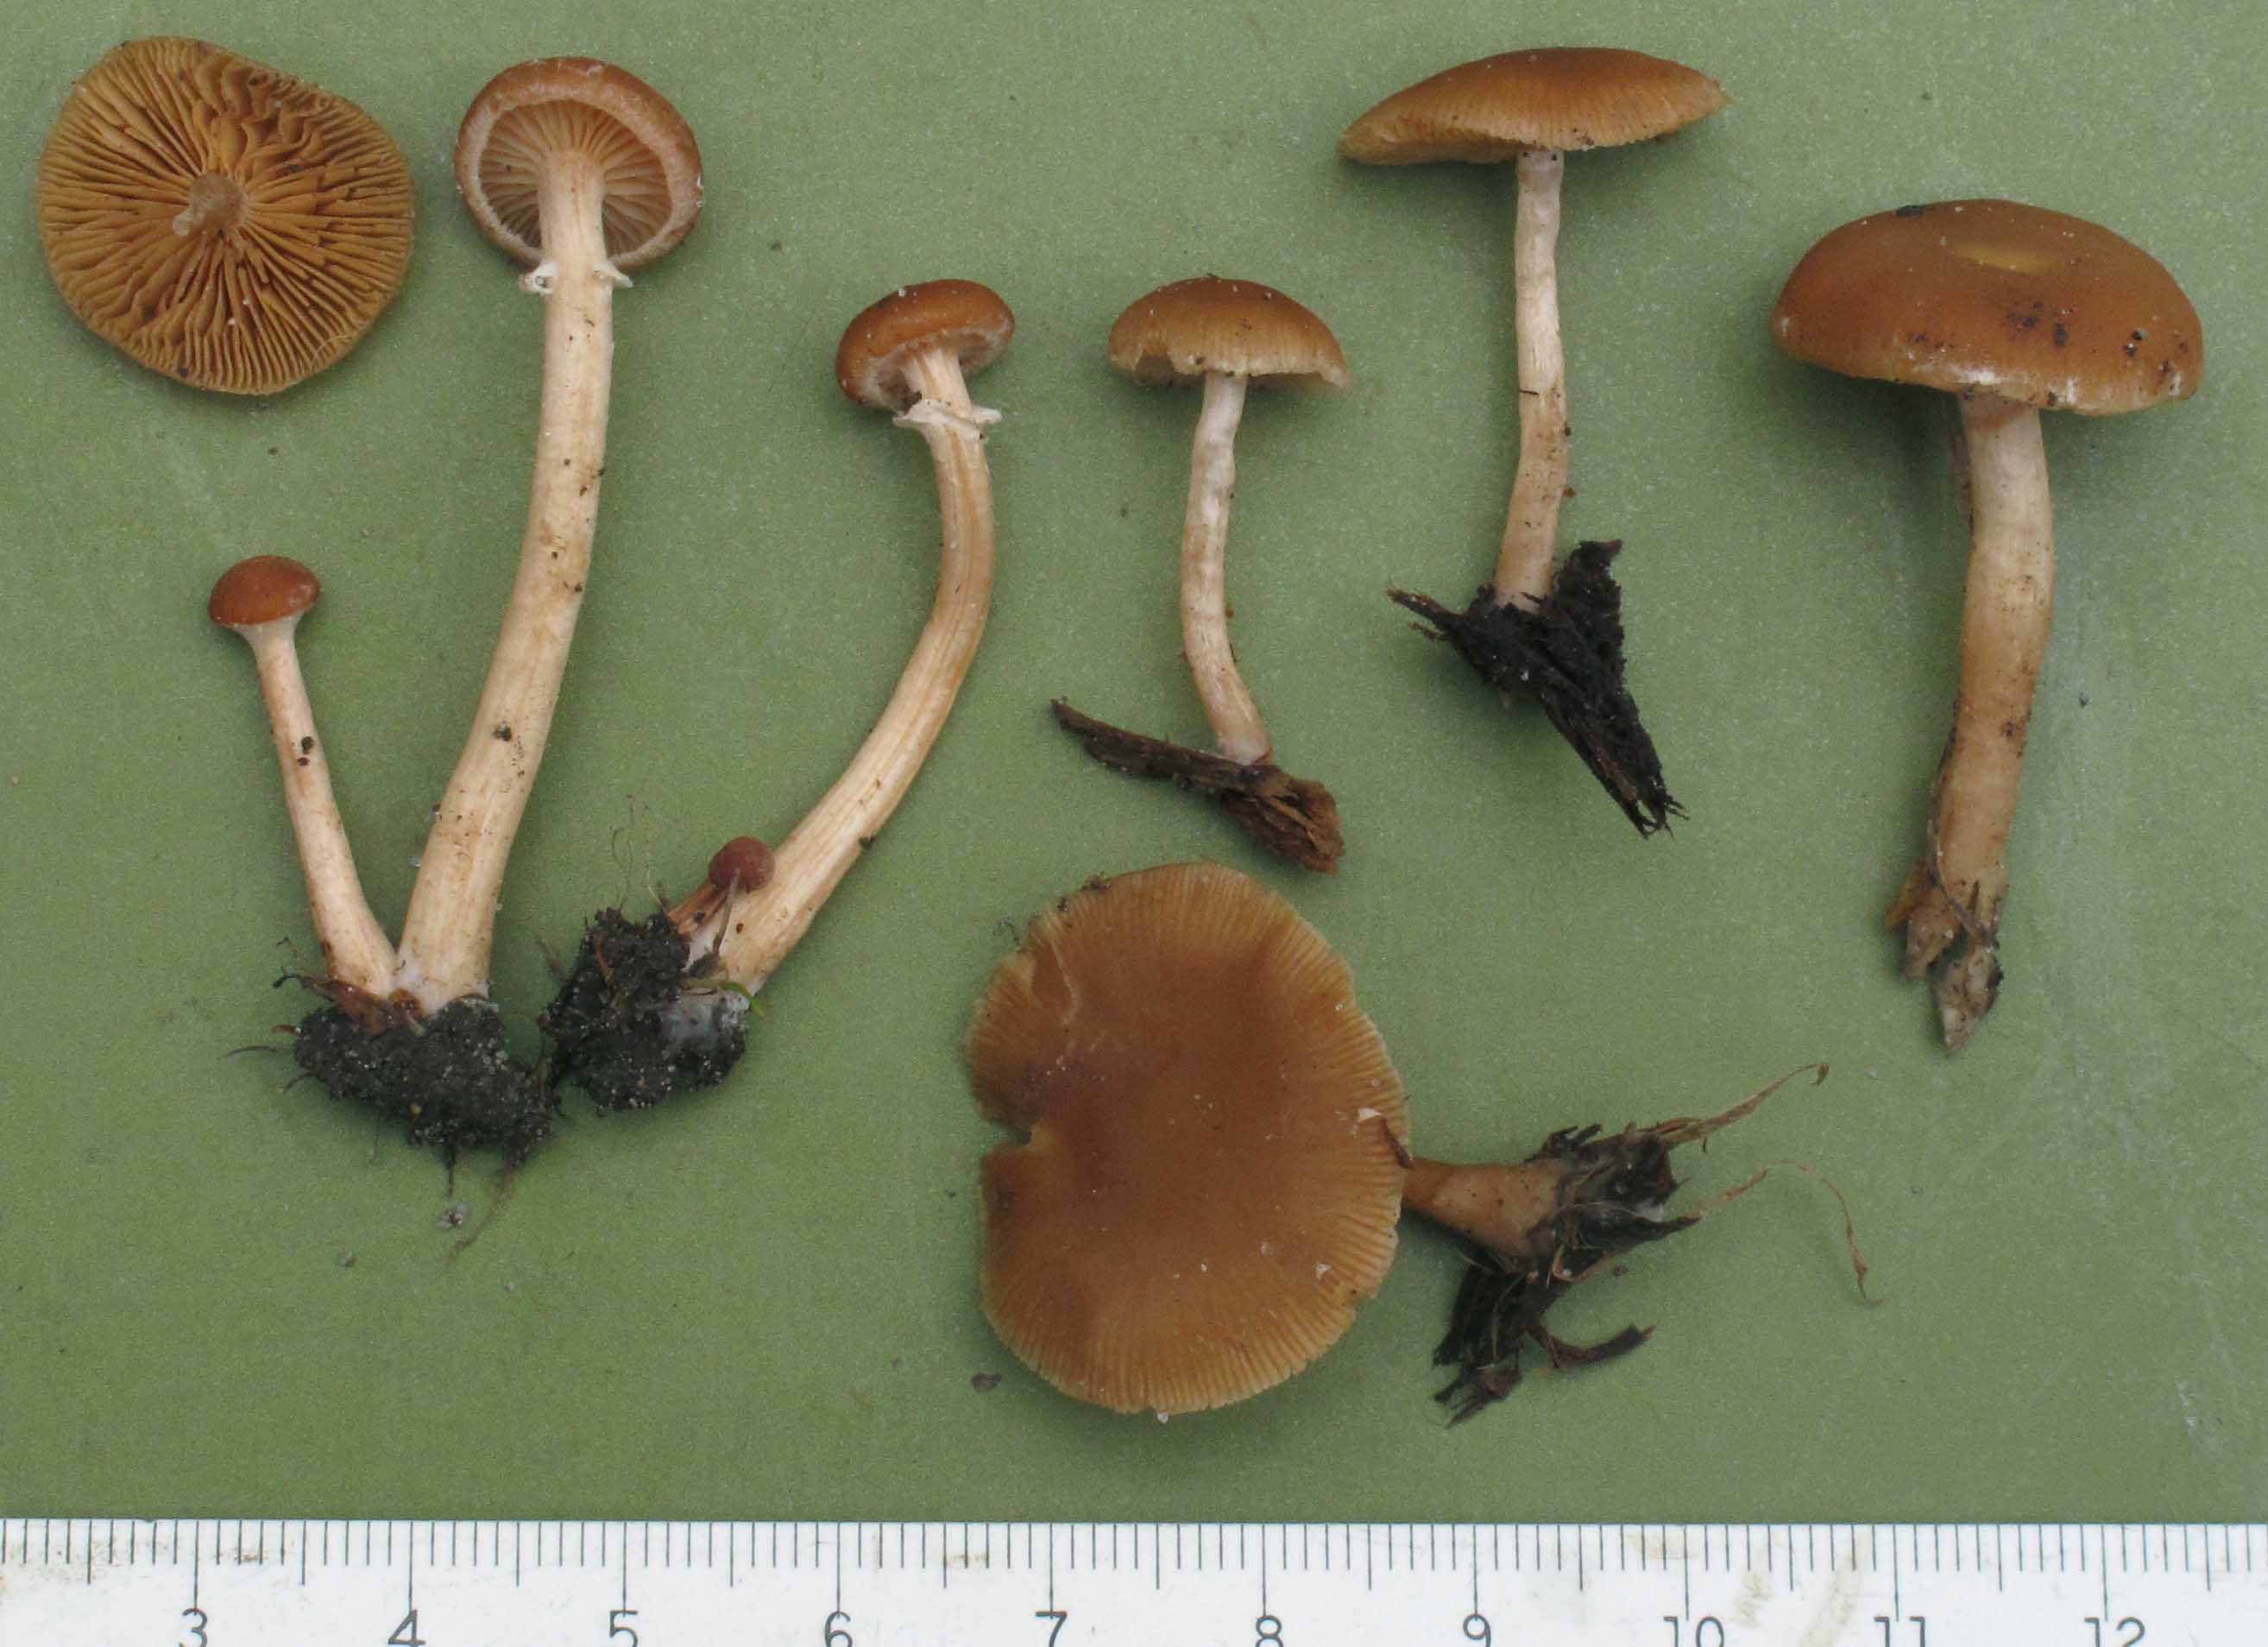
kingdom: Fungi
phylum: Basidiomycota
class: Agaricomycetes
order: Agaricales
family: Tubariaceae
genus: Tubaria
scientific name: Tubaria furfuracea
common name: kliddet fnughat
